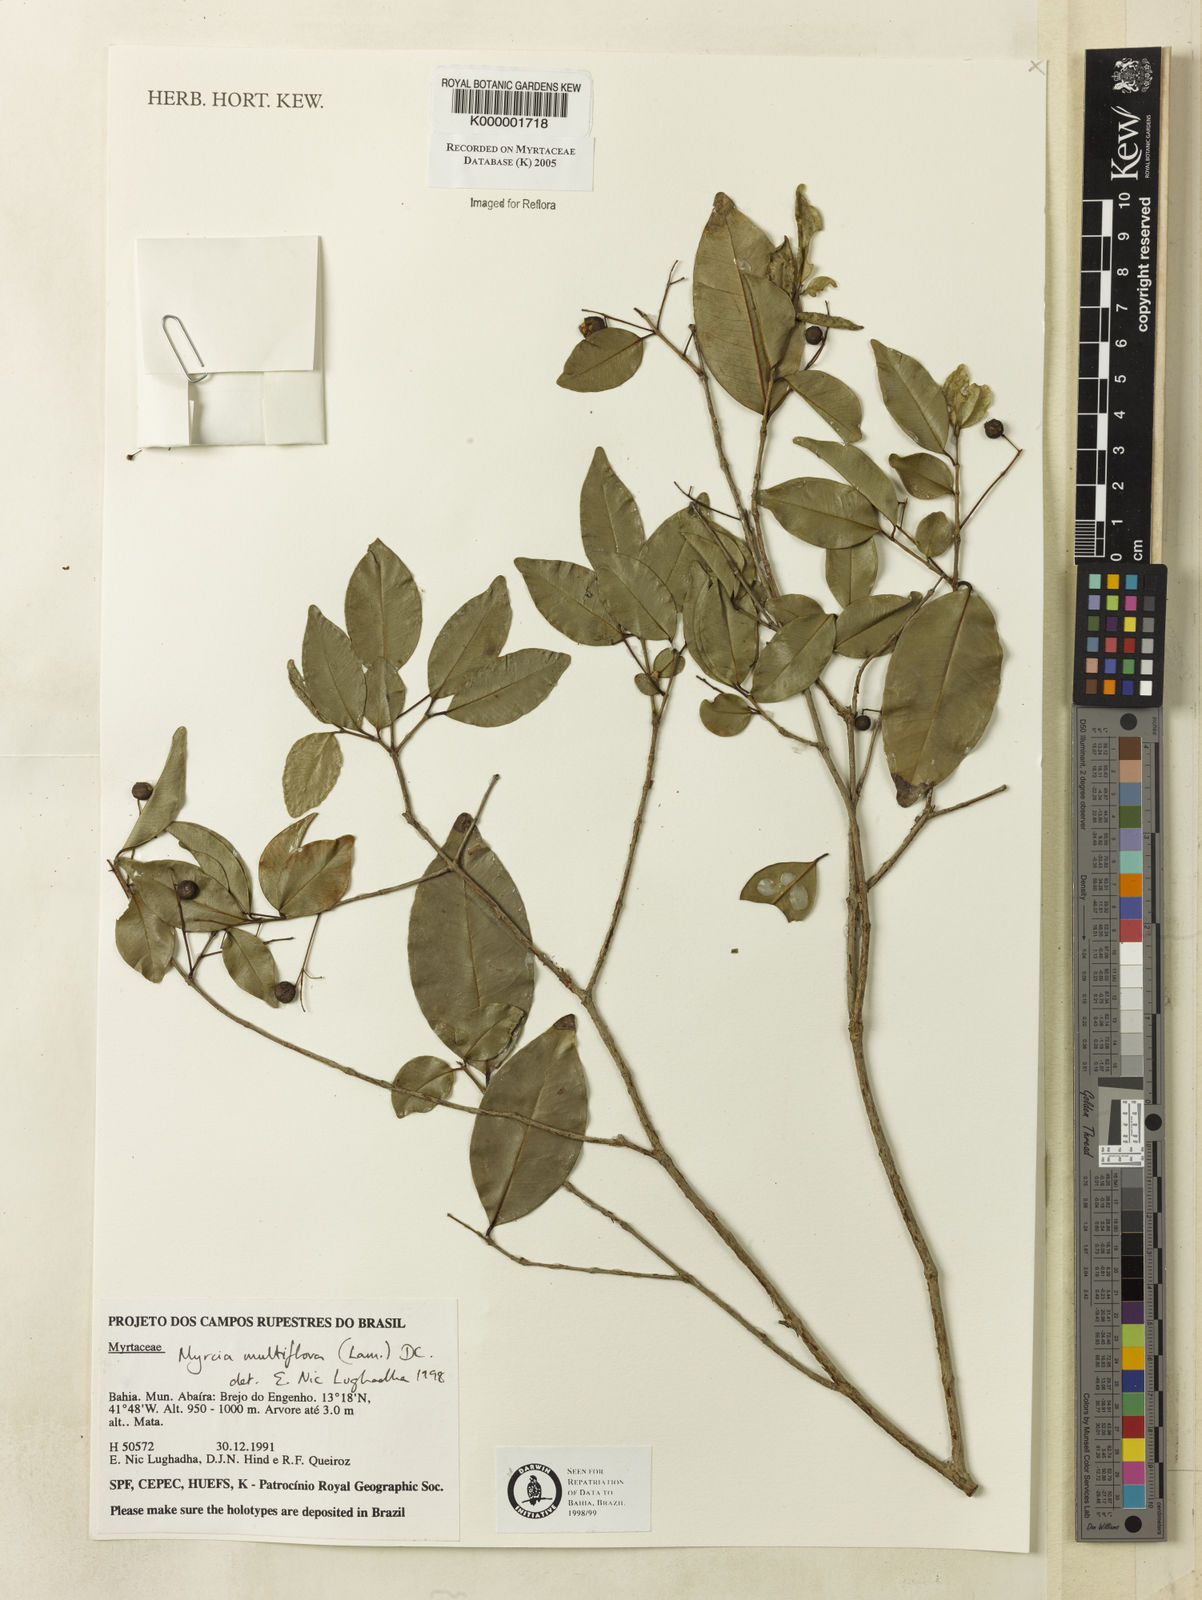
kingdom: Plantae
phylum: Tracheophyta
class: Magnoliopsida
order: Myrtales
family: Myrtaceae
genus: Myrcia
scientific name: Myrcia multiflora
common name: Pedra hume
